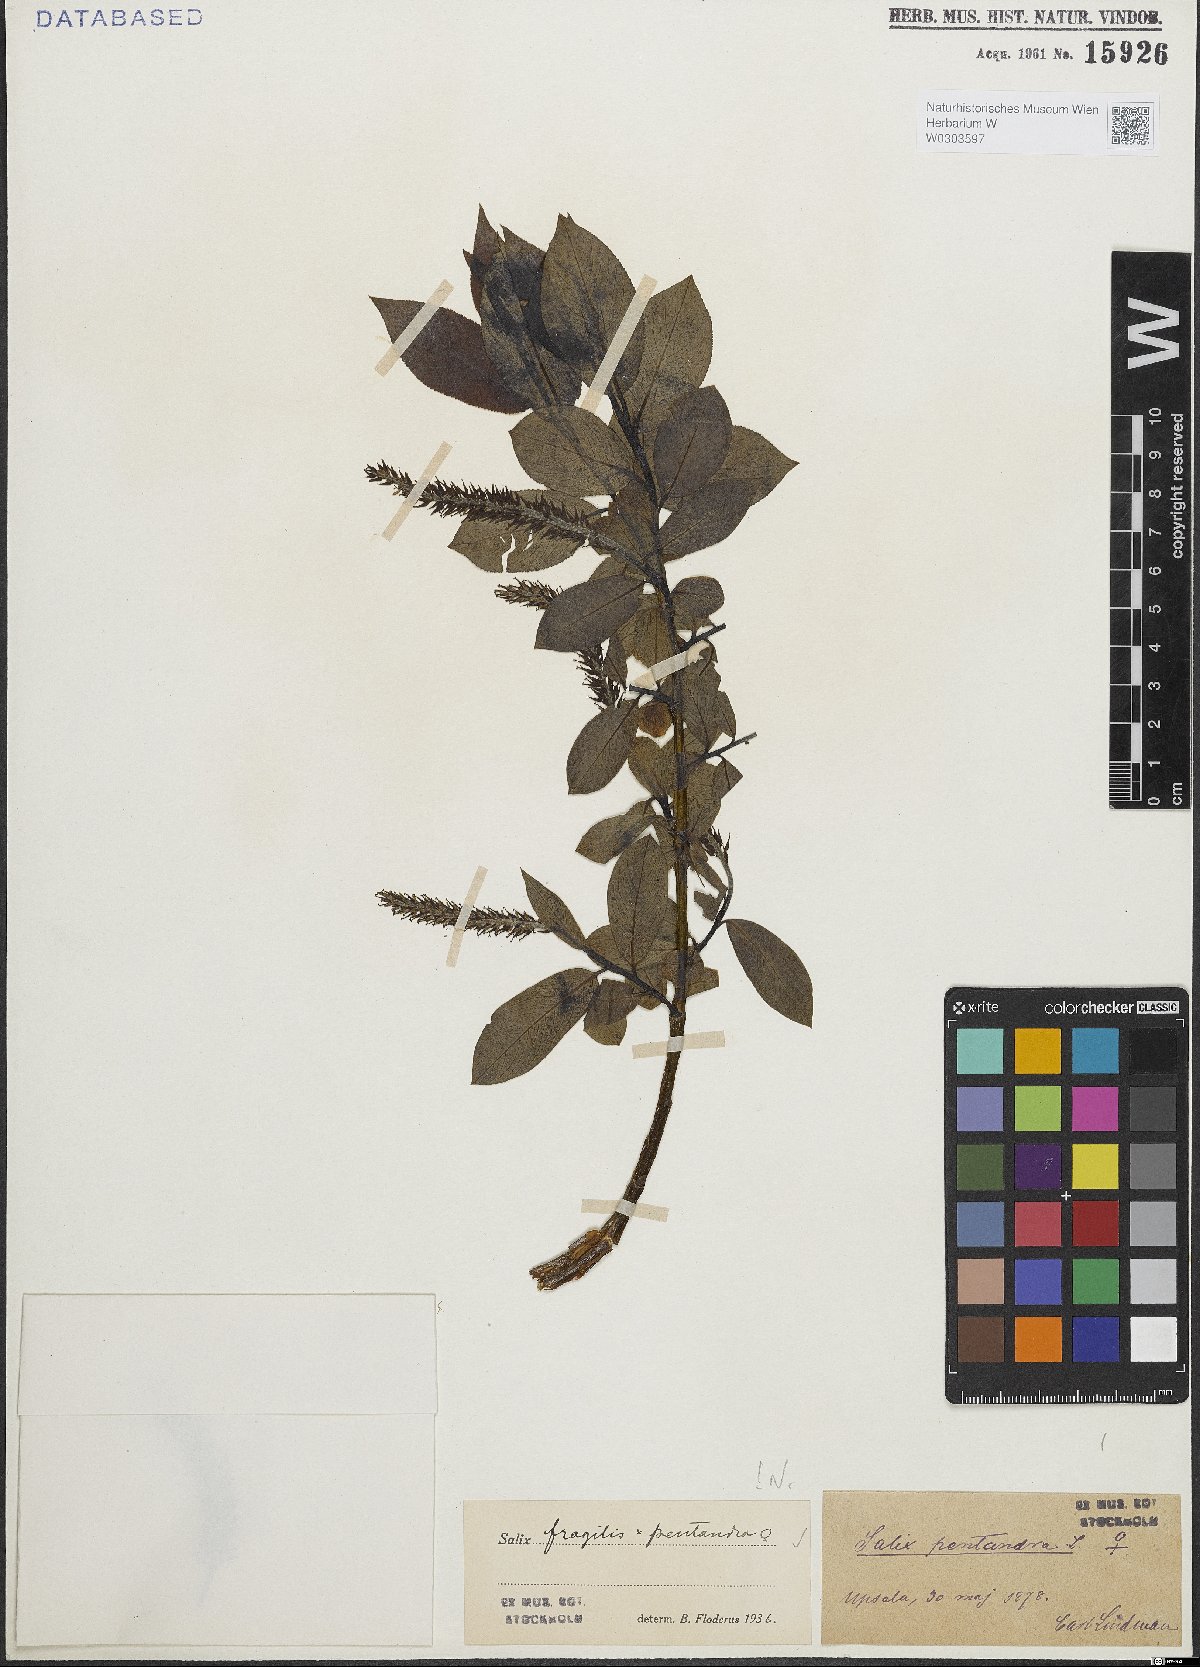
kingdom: Plantae
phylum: Tracheophyta
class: Magnoliopsida
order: Malpighiales
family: Salicaceae
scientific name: Salicaceae
